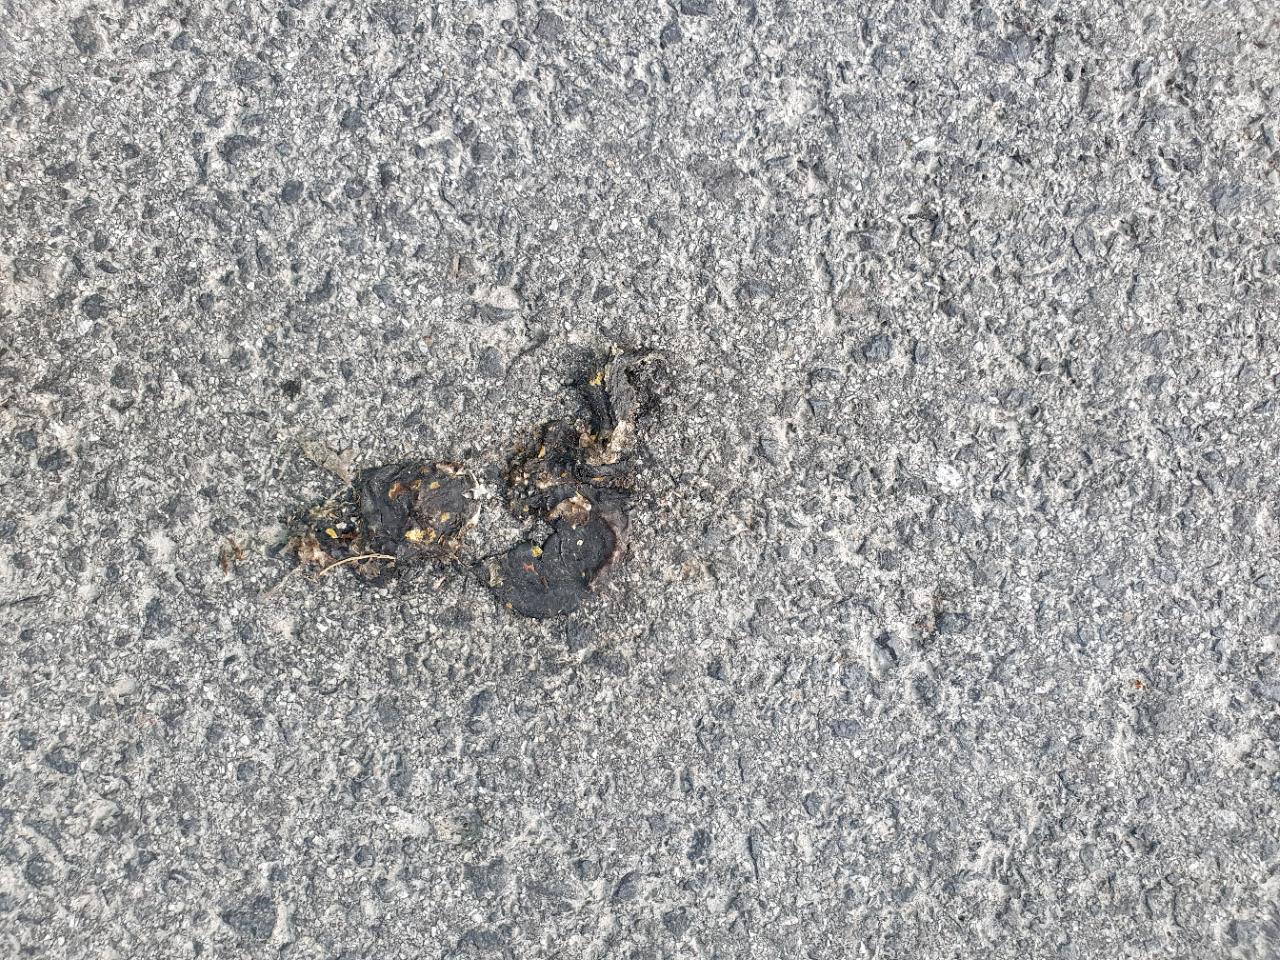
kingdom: Animalia
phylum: Chordata
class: Amphibia
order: Caudata
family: Salamandridae
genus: Salamandra
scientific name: Salamandra salamandra
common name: Fire salamander
